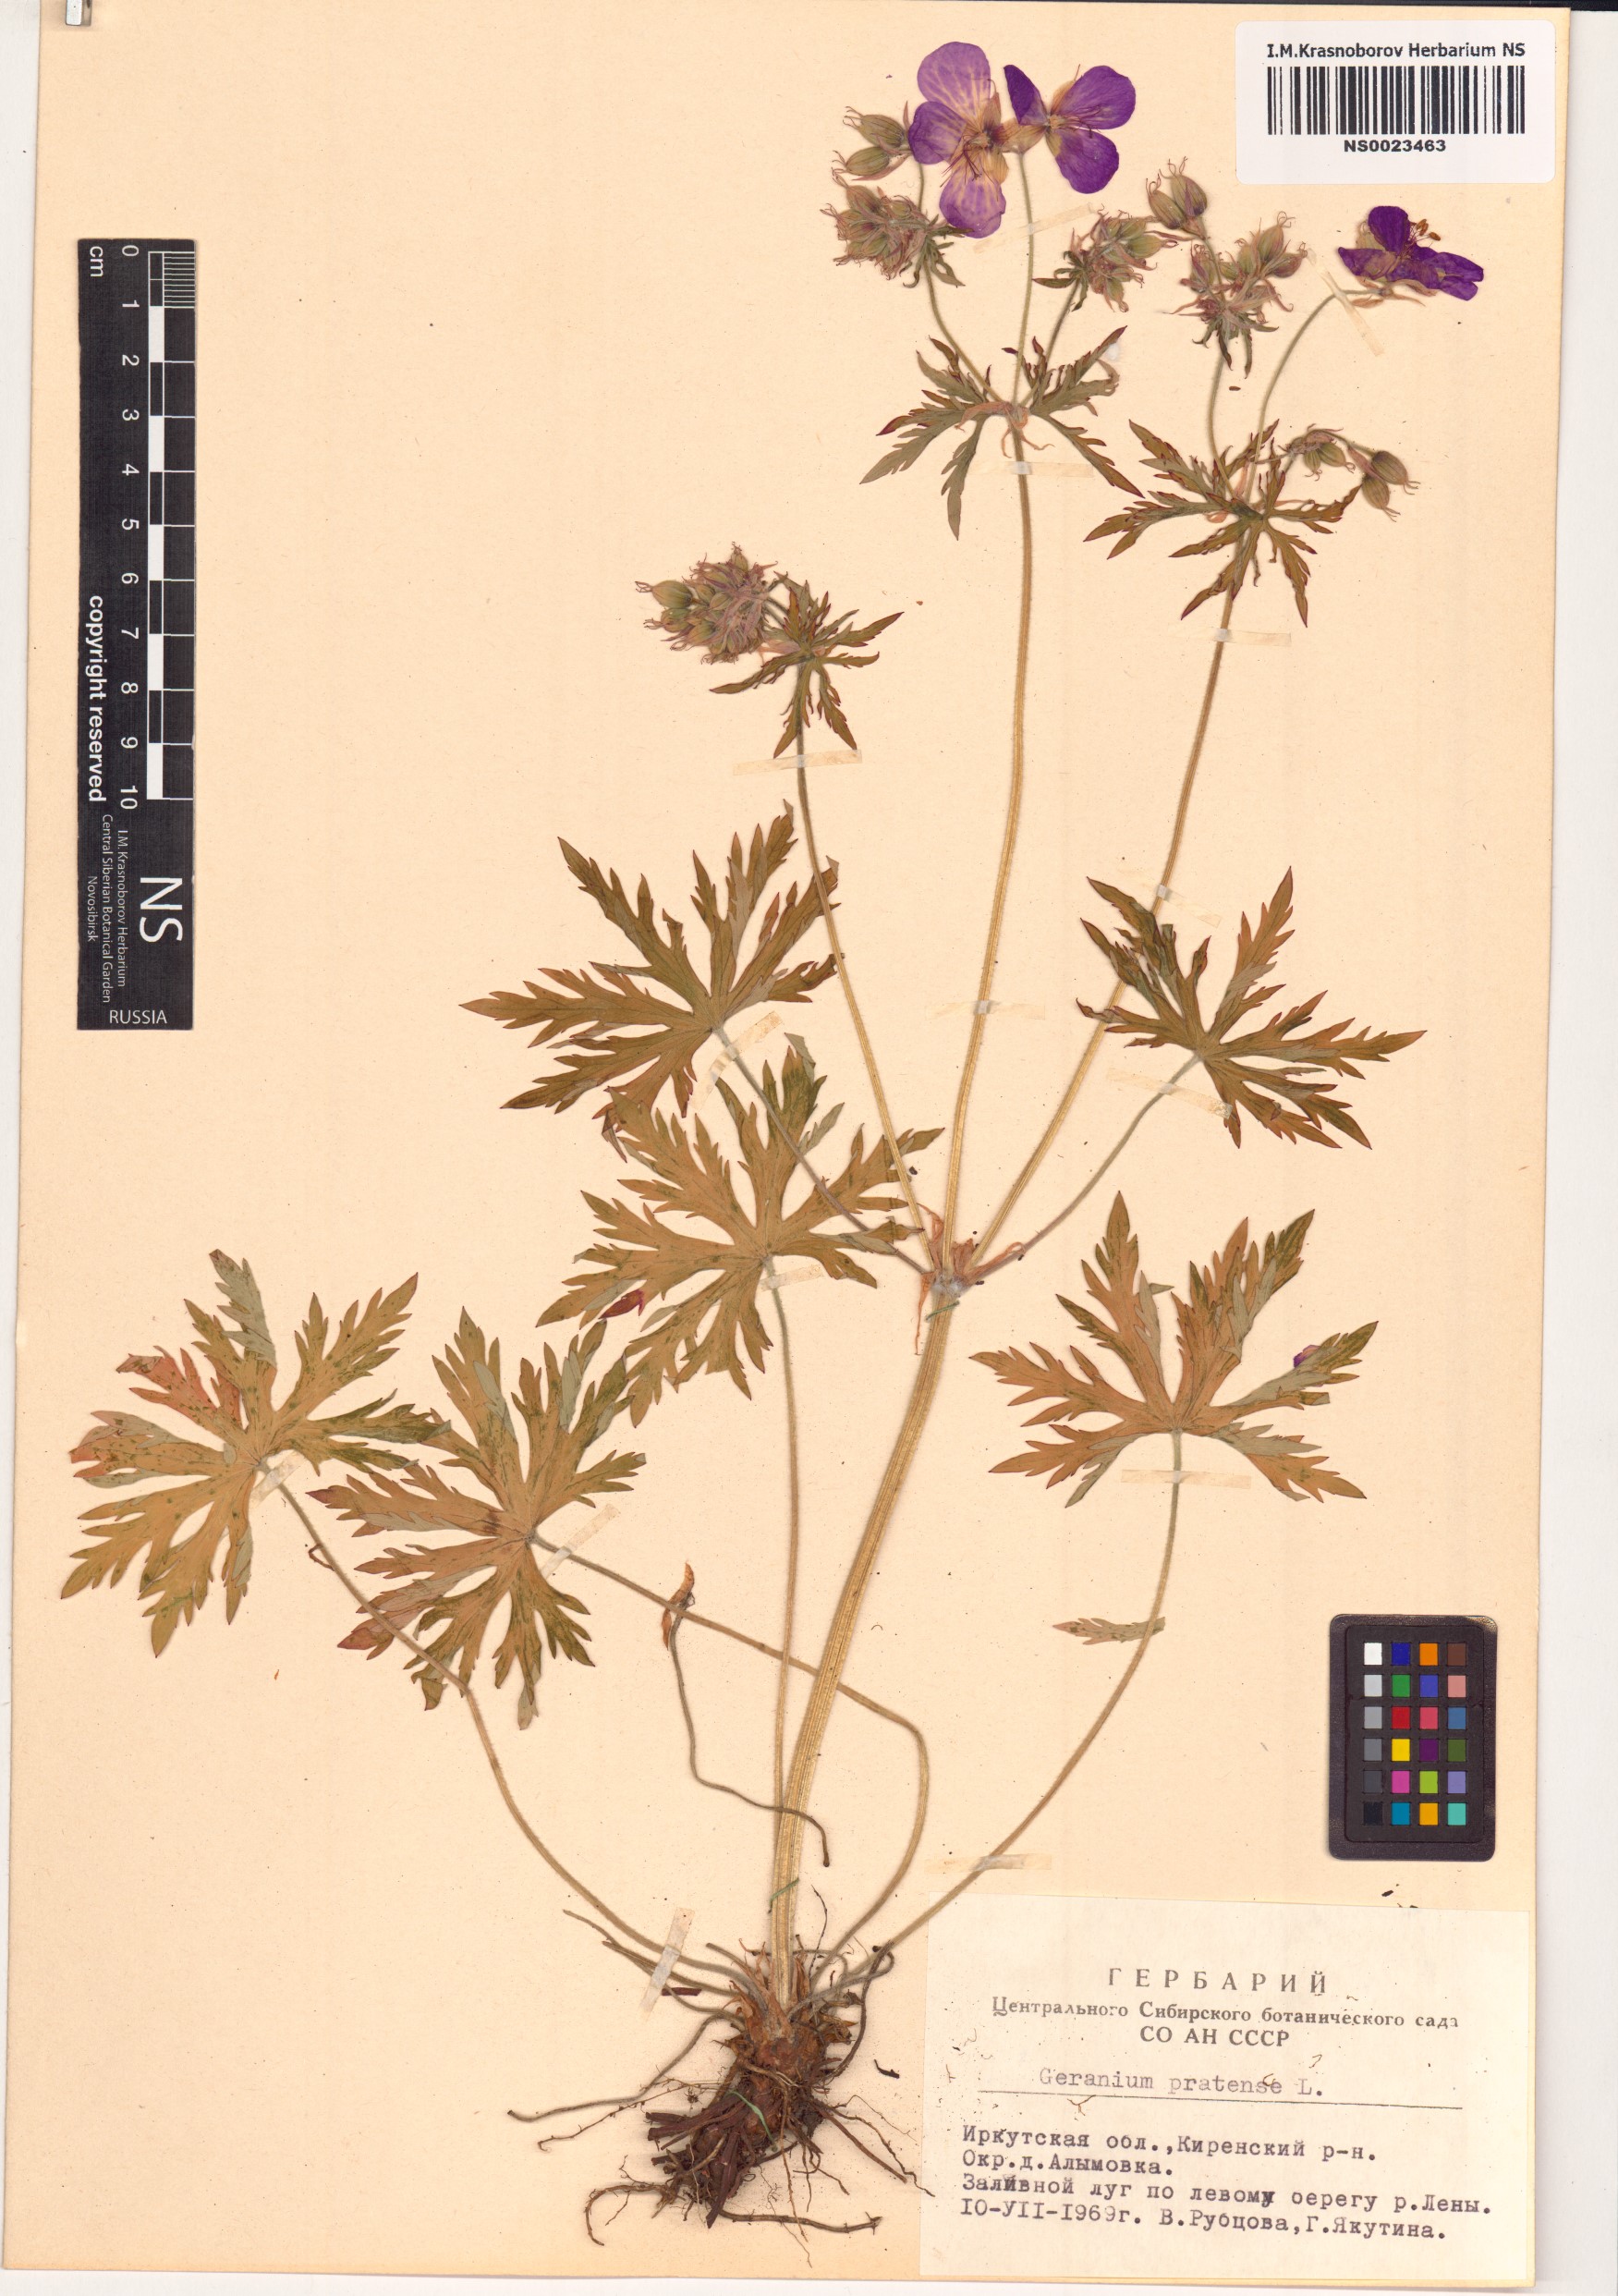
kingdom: Plantae
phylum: Tracheophyta
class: Magnoliopsida
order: Geraniales
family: Geraniaceae
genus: Geranium
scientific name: Geranium pratense
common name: Meadow crane's-bill
